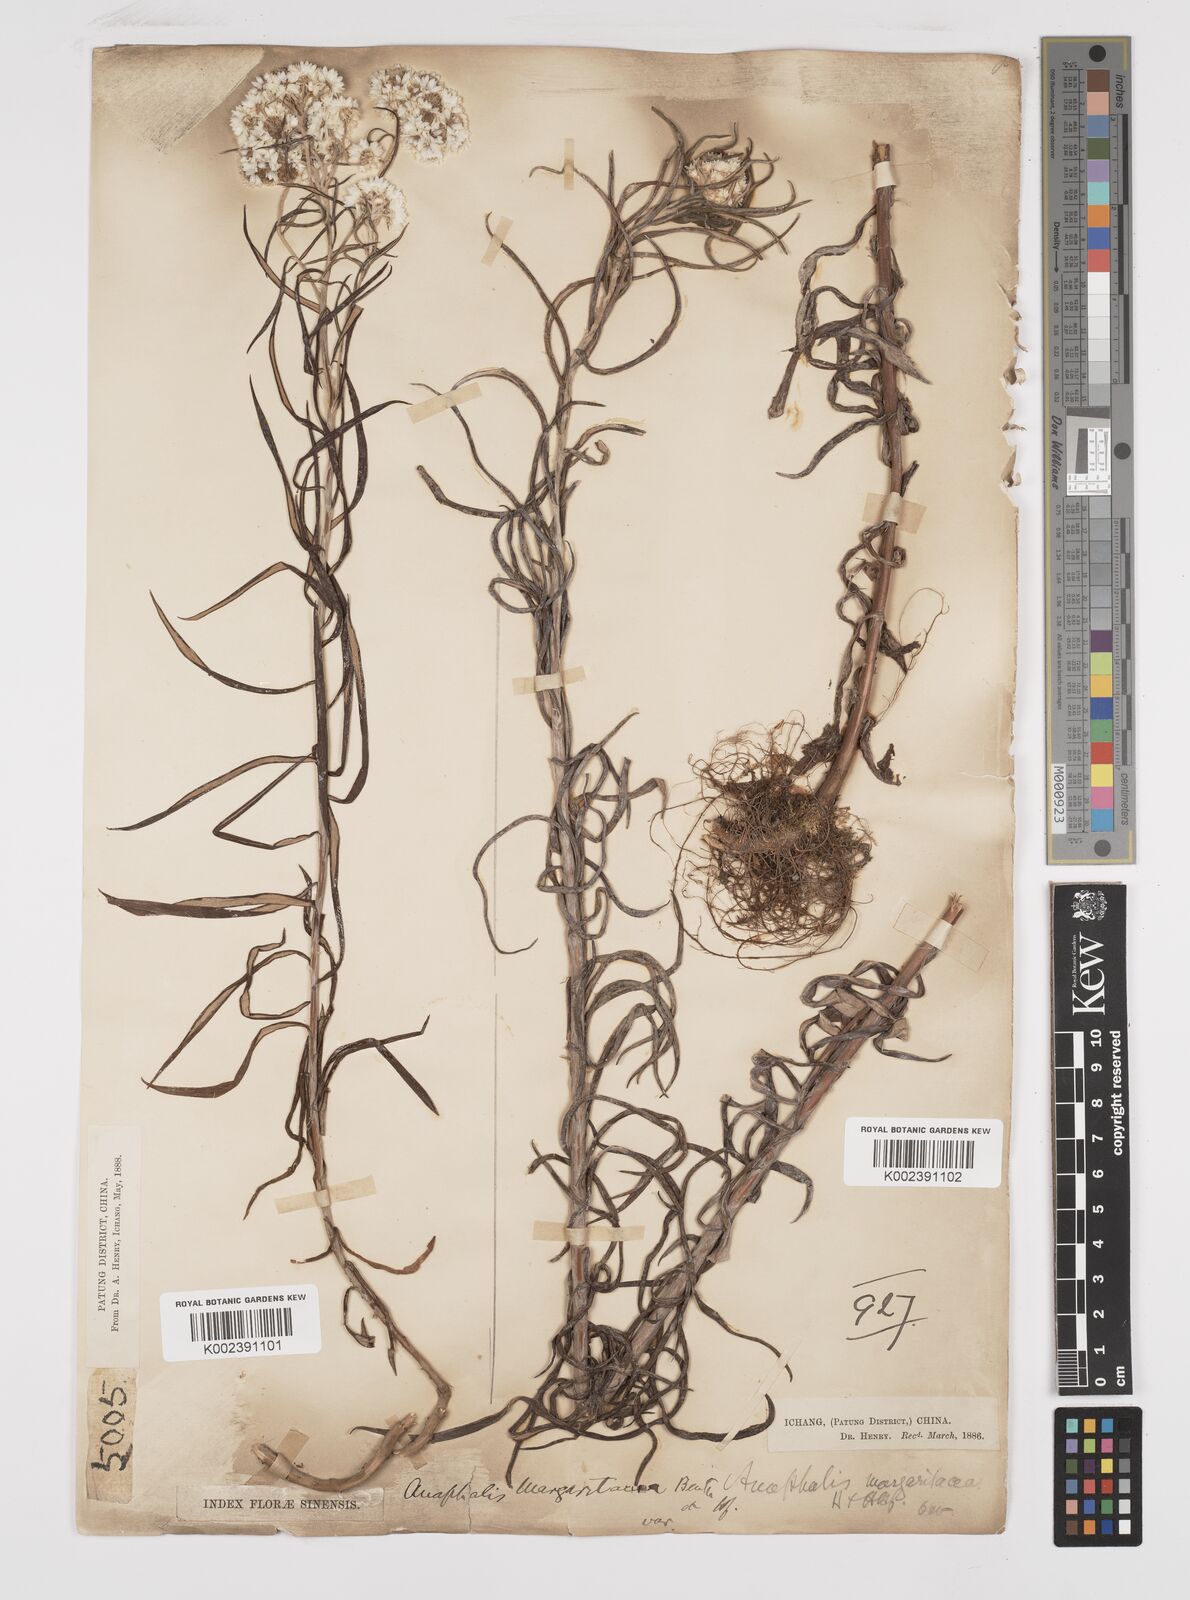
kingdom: Plantae
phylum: Tracheophyta
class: Magnoliopsida
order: Asterales
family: Asteraceae
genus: Anaphalis
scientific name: Anaphalis margaritacea
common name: Pearly everlasting
